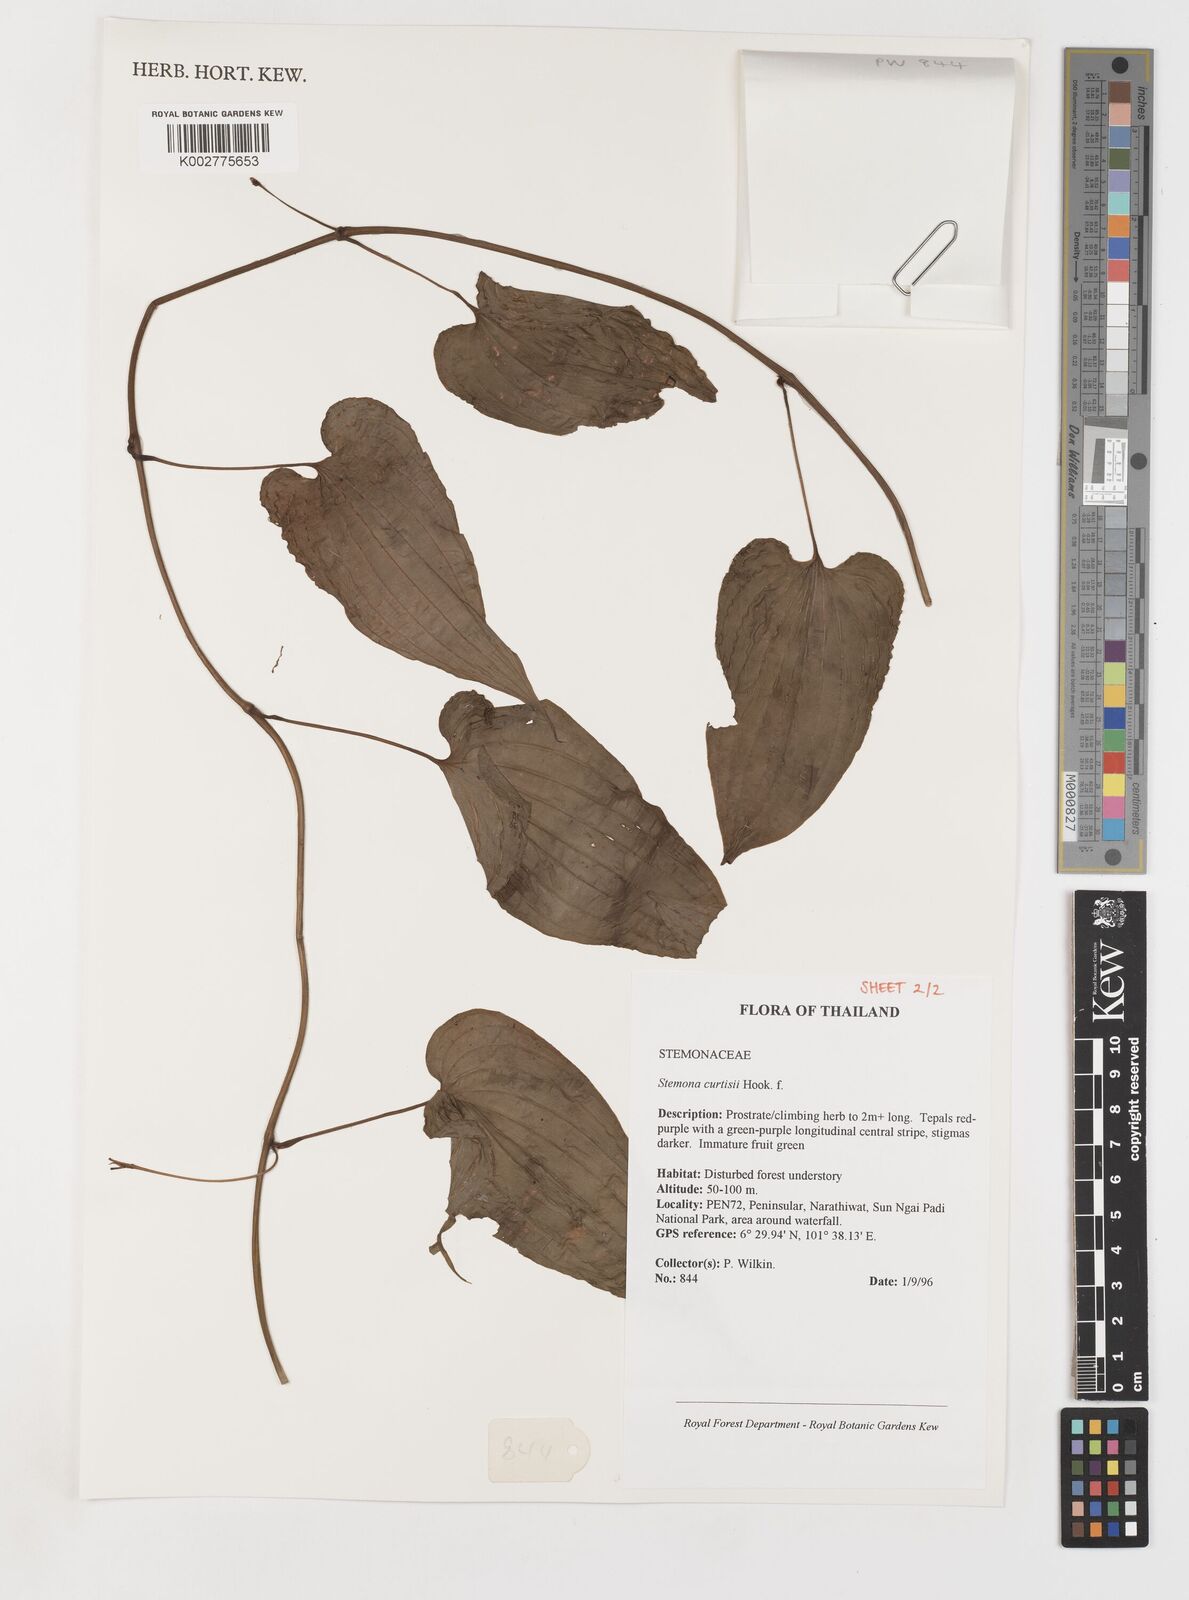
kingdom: Plantae
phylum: Tracheophyta
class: Liliopsida
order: Pandanales
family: Stemonaceae
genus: Stemona
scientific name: Stemona curtisii
